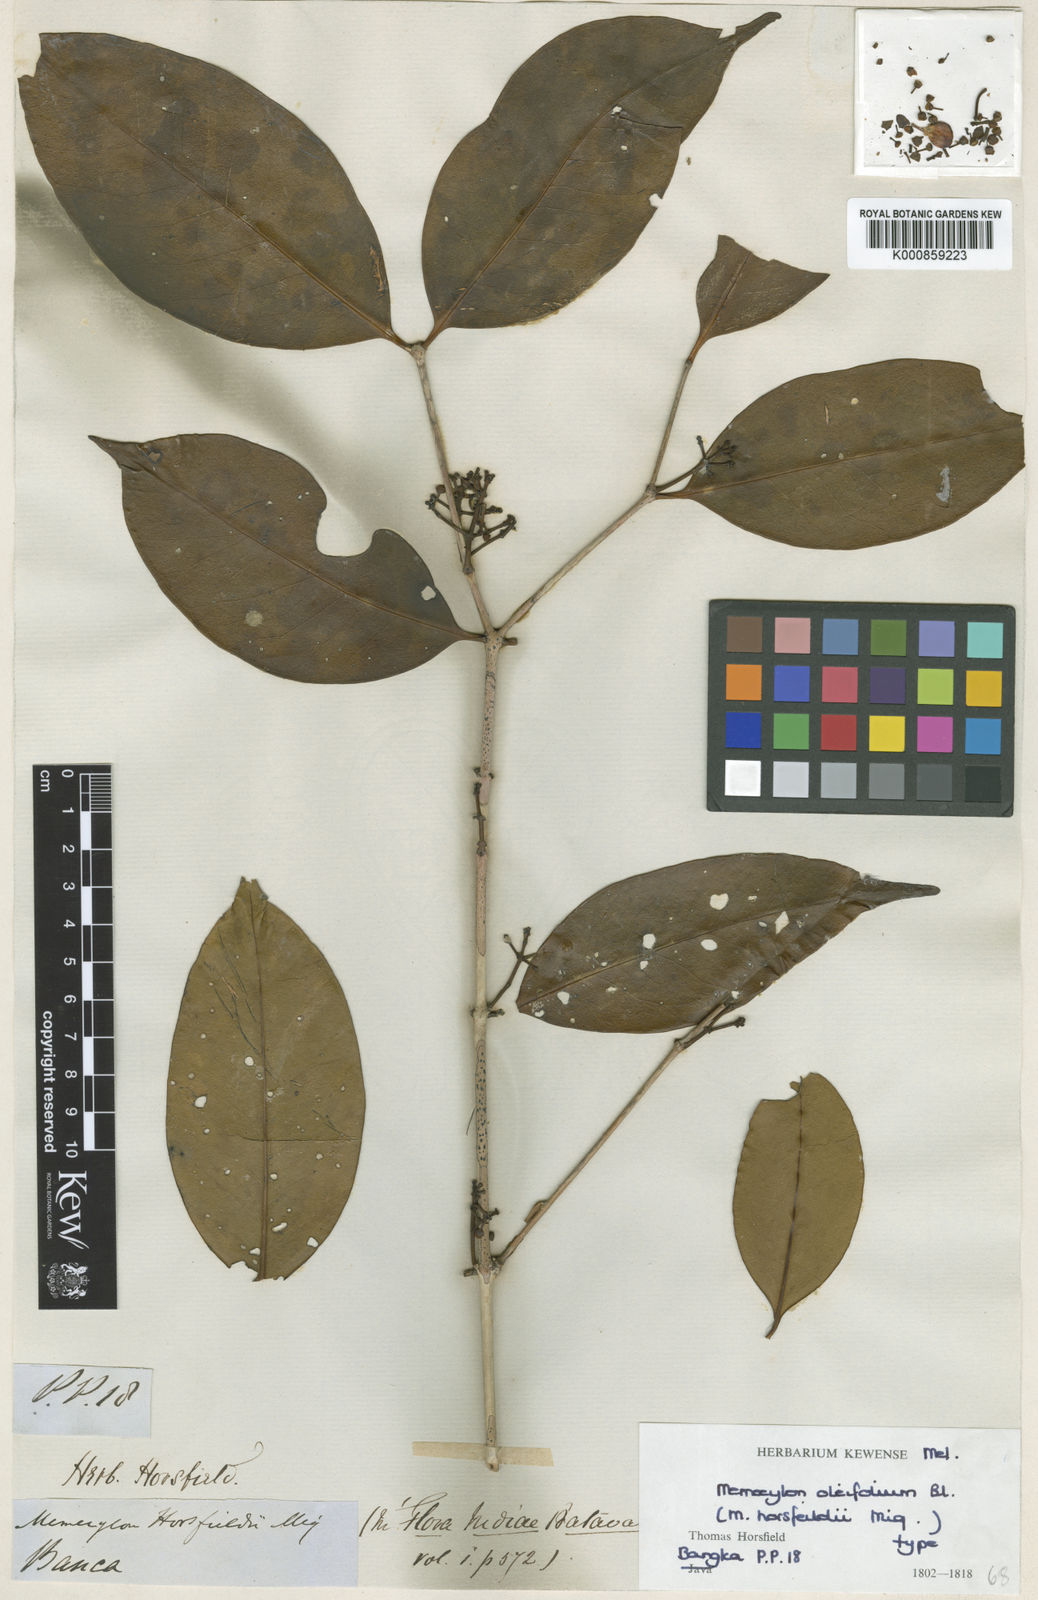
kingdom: Plantae
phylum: Tracheophyta
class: Magnoliopsida
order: Myrtales
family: Melastomataceae
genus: Memecylon
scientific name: Memecylon oleifolium
